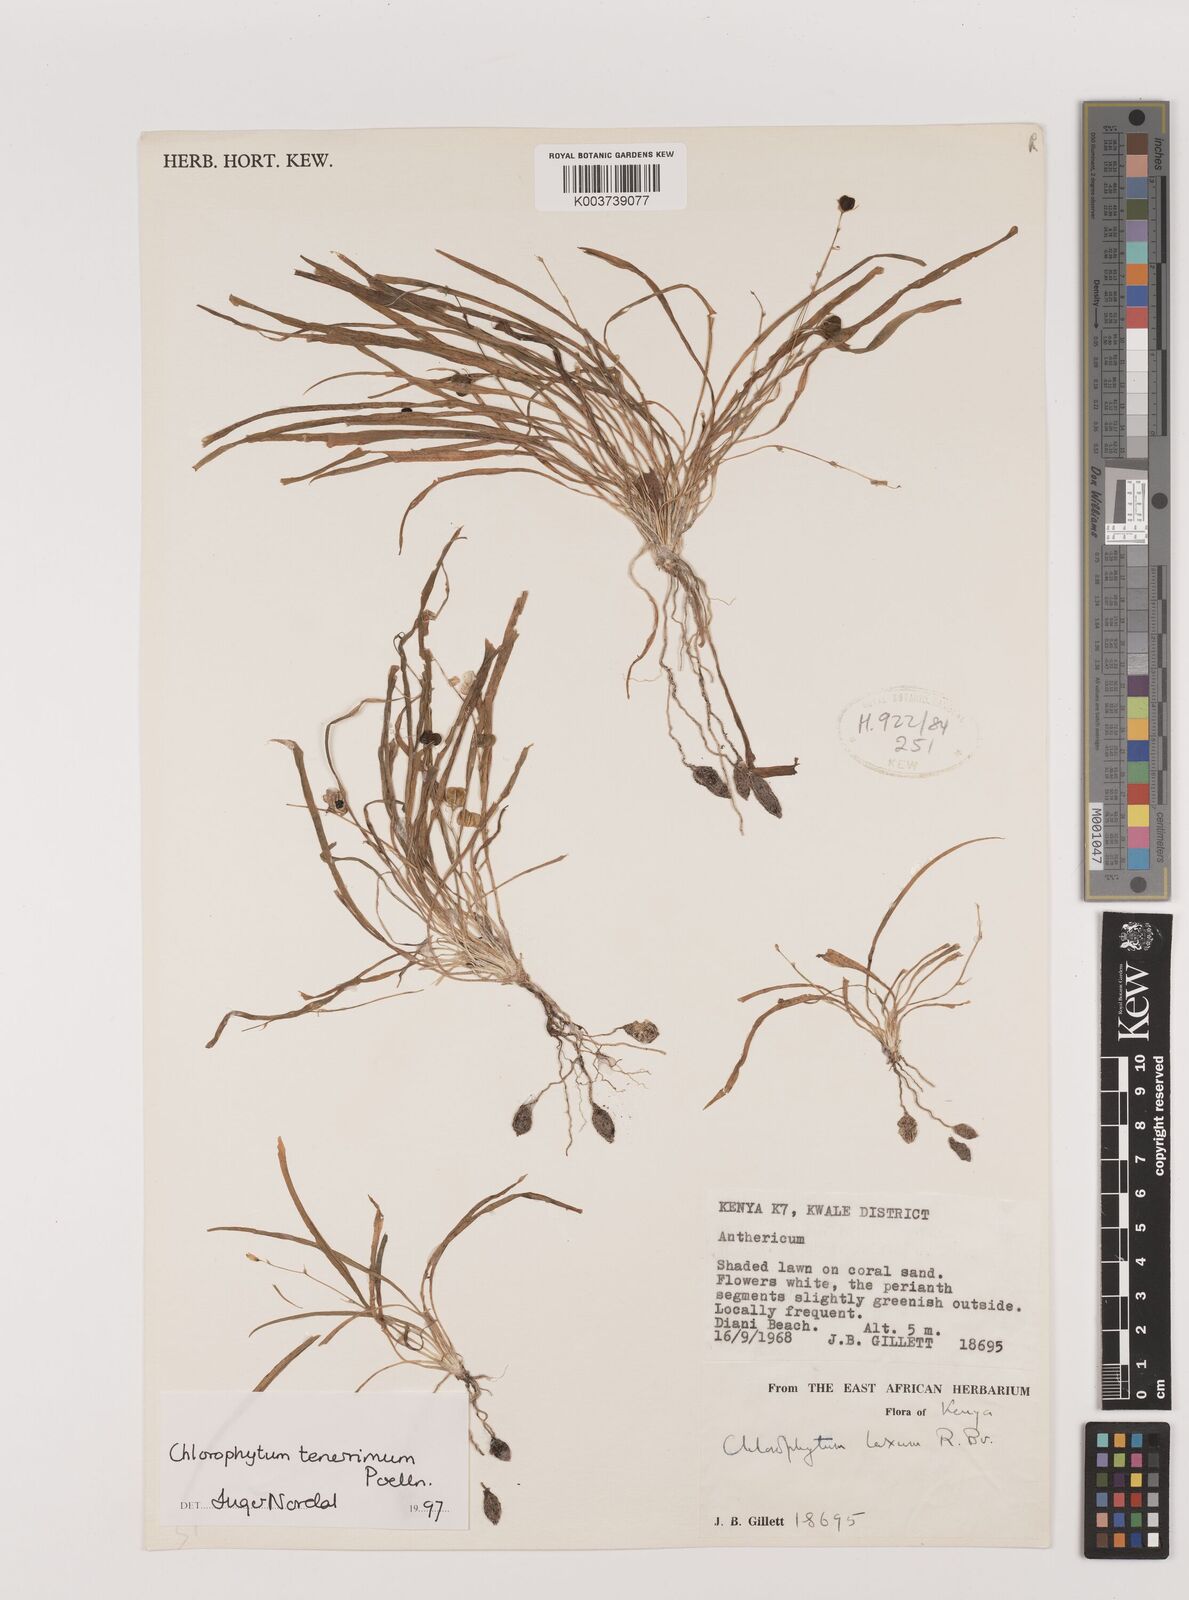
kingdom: Plantae
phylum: Tracheophyta
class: Liliopsida
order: Asparagales
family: Asparagaceae
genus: Chlorophytum
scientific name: Chlorophytum tenerrimum
